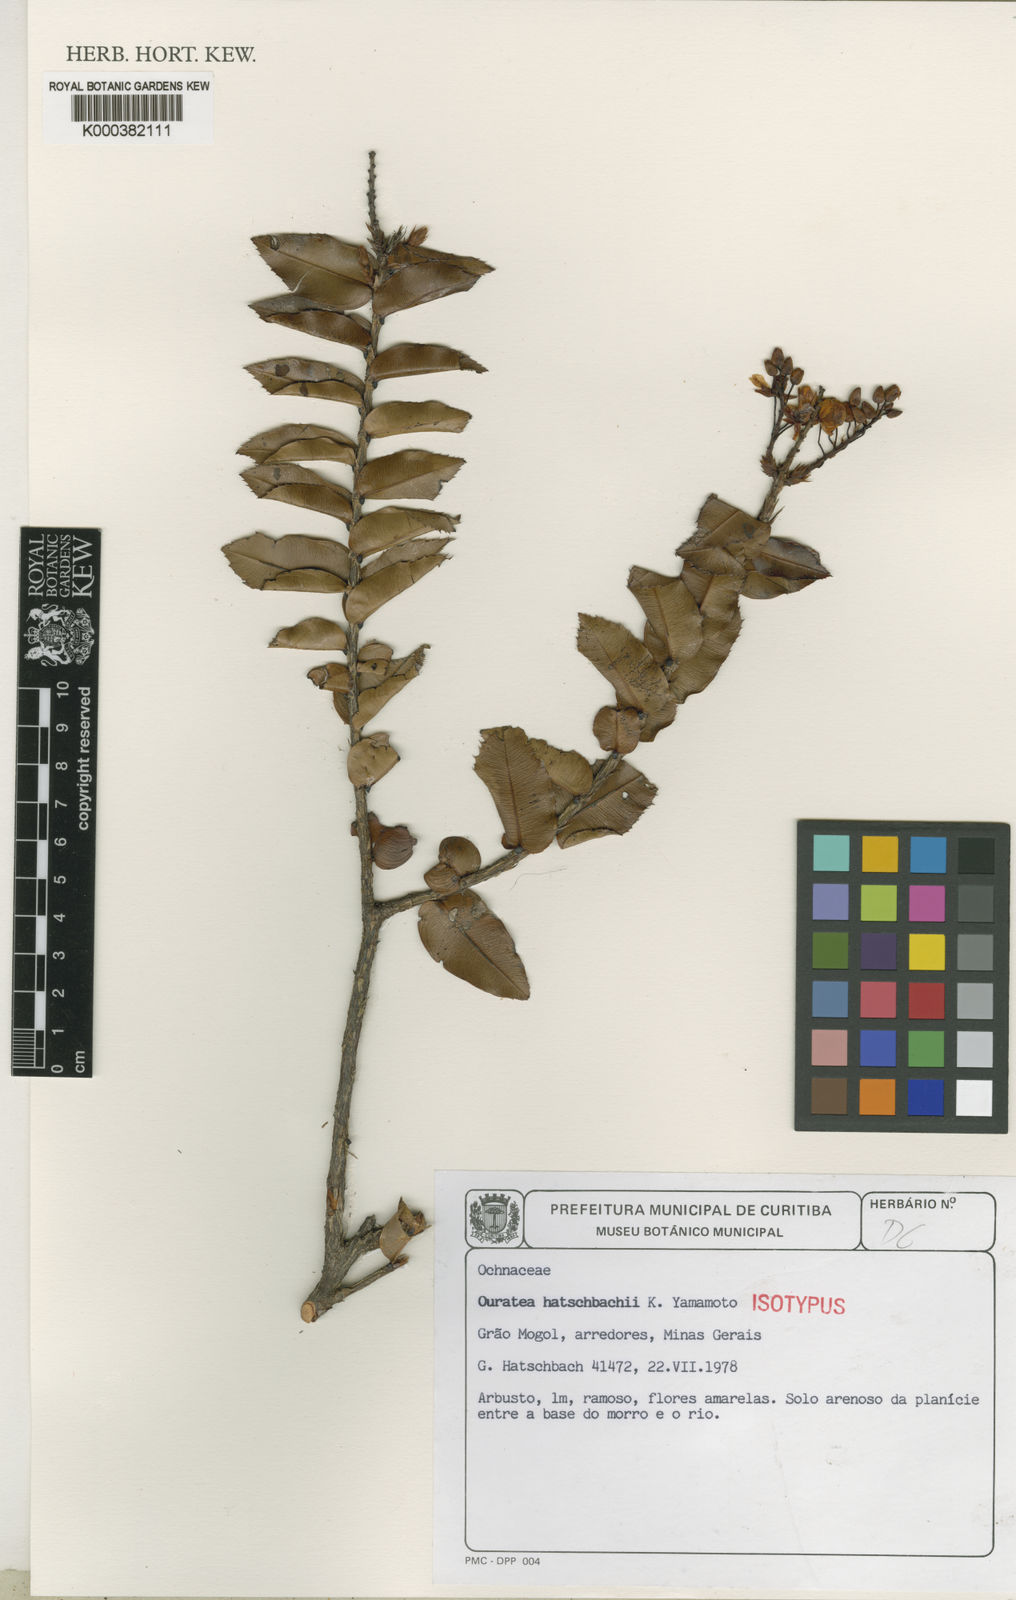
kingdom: Plantae
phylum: Tracheophyta
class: Magnoliopsida
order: Malpighiales
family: Ochnaceae
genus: Ouratea
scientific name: Ouratea hatschbachii
